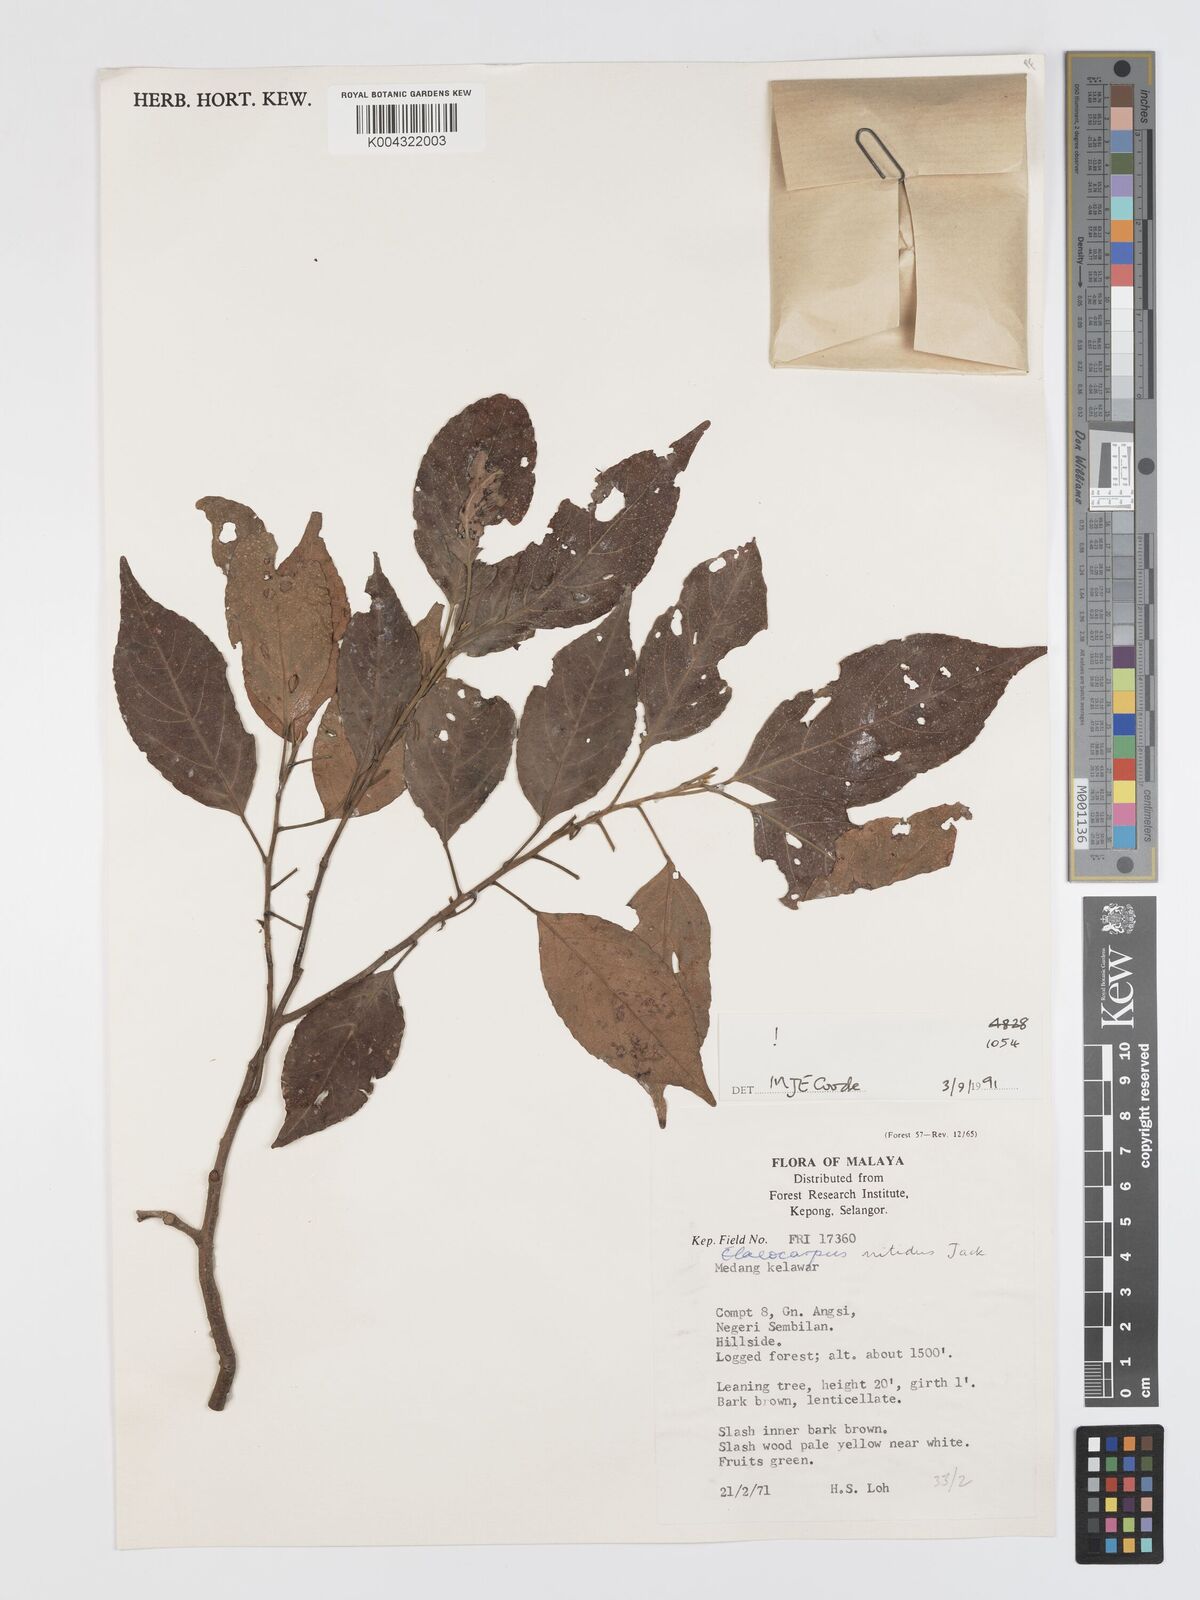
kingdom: Plantae
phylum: Tracheophyta
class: Magnoliopsida
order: Oxalidales
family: Elaeocarpaceae
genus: Elaeocarpus
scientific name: Elaeocarpus nitidus
